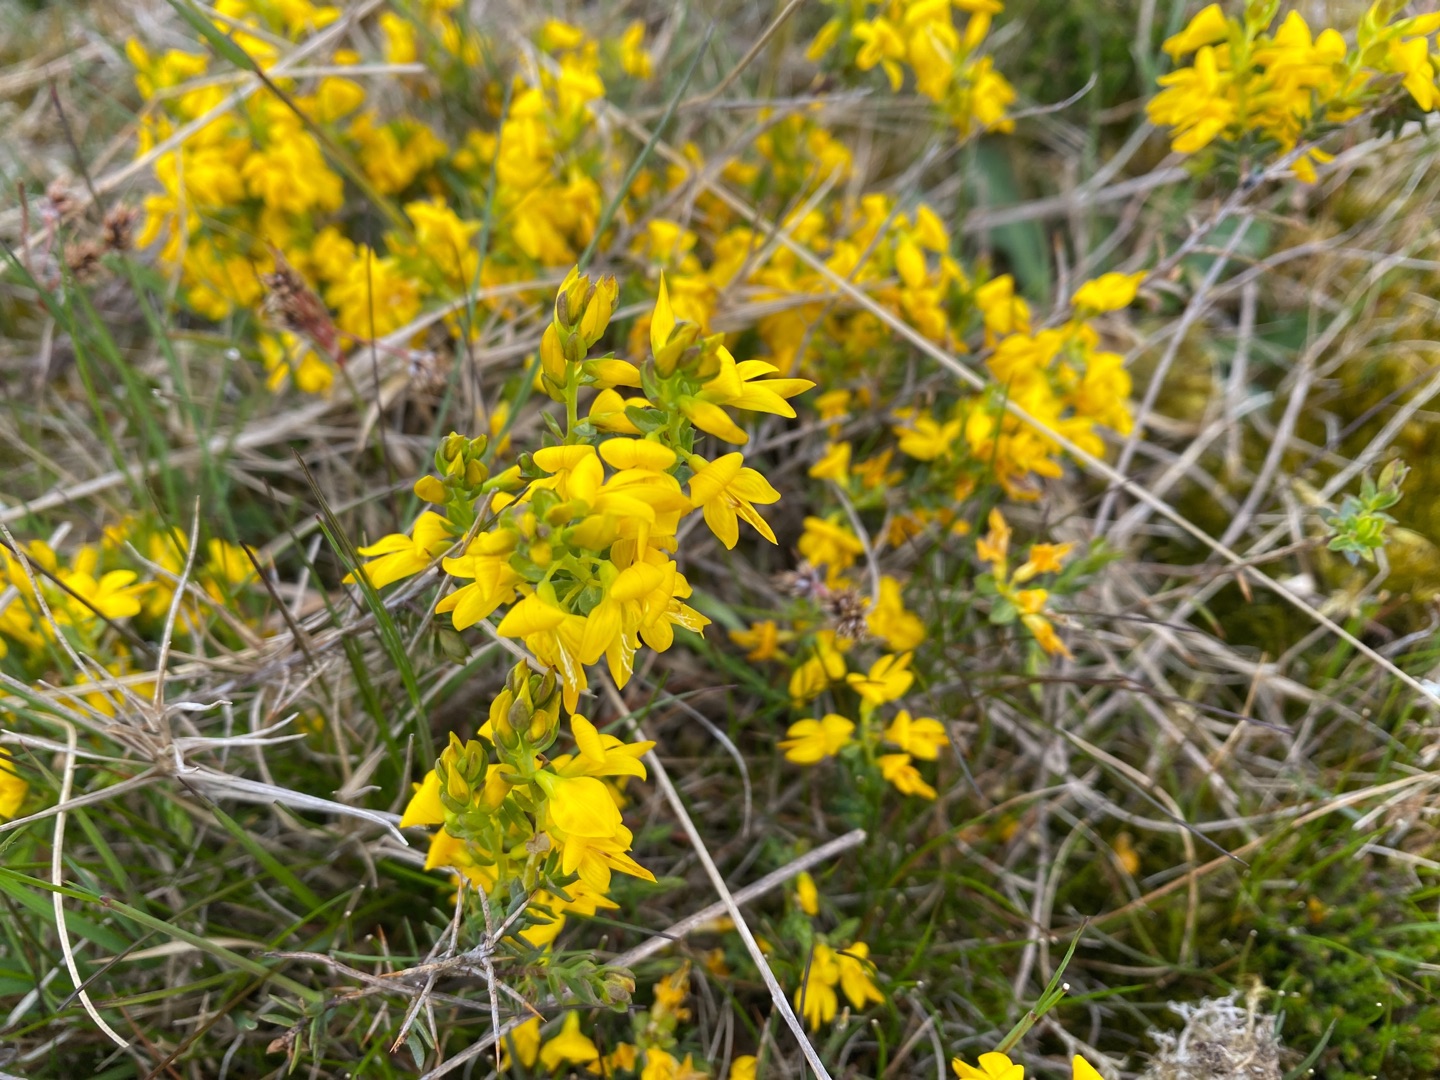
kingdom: Plantae
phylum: Tracheophyta
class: Magnoliopsida
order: Fabales
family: Fabaceae
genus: Genista
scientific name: Genista anglica
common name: Engelsk visse
